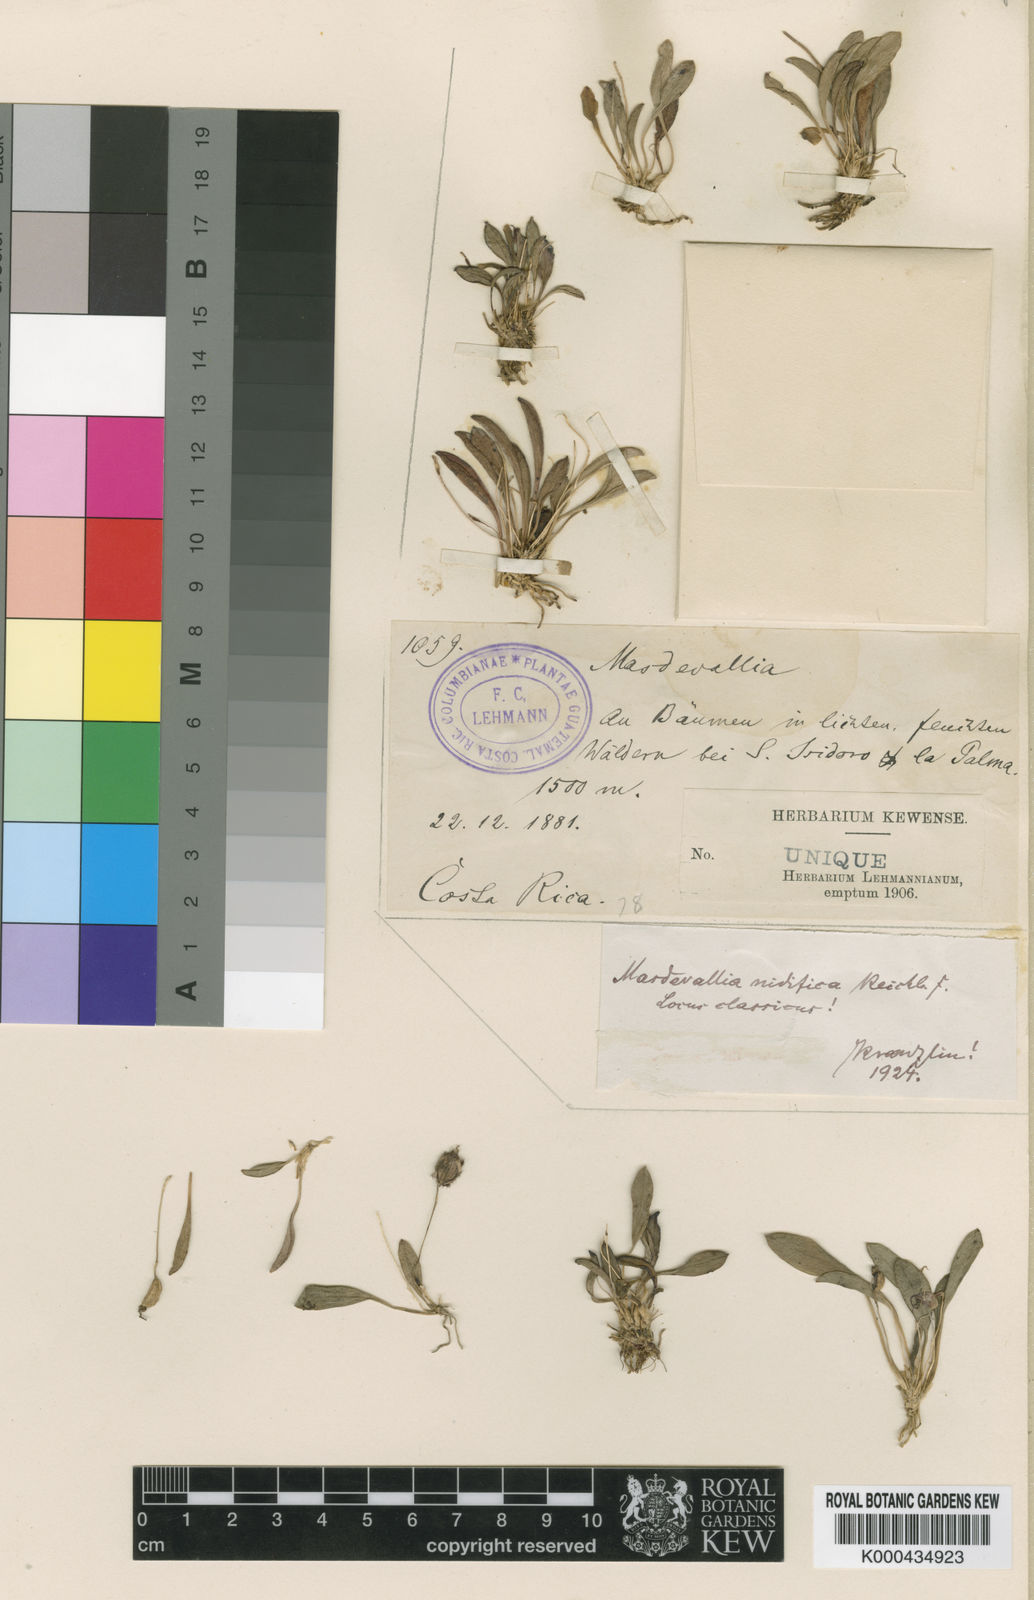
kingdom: Plantae
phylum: Tracheophyta
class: Liliopsida
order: Asparagales
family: Orchidaceae
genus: Masdevallia
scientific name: Masdevallia nidifica
